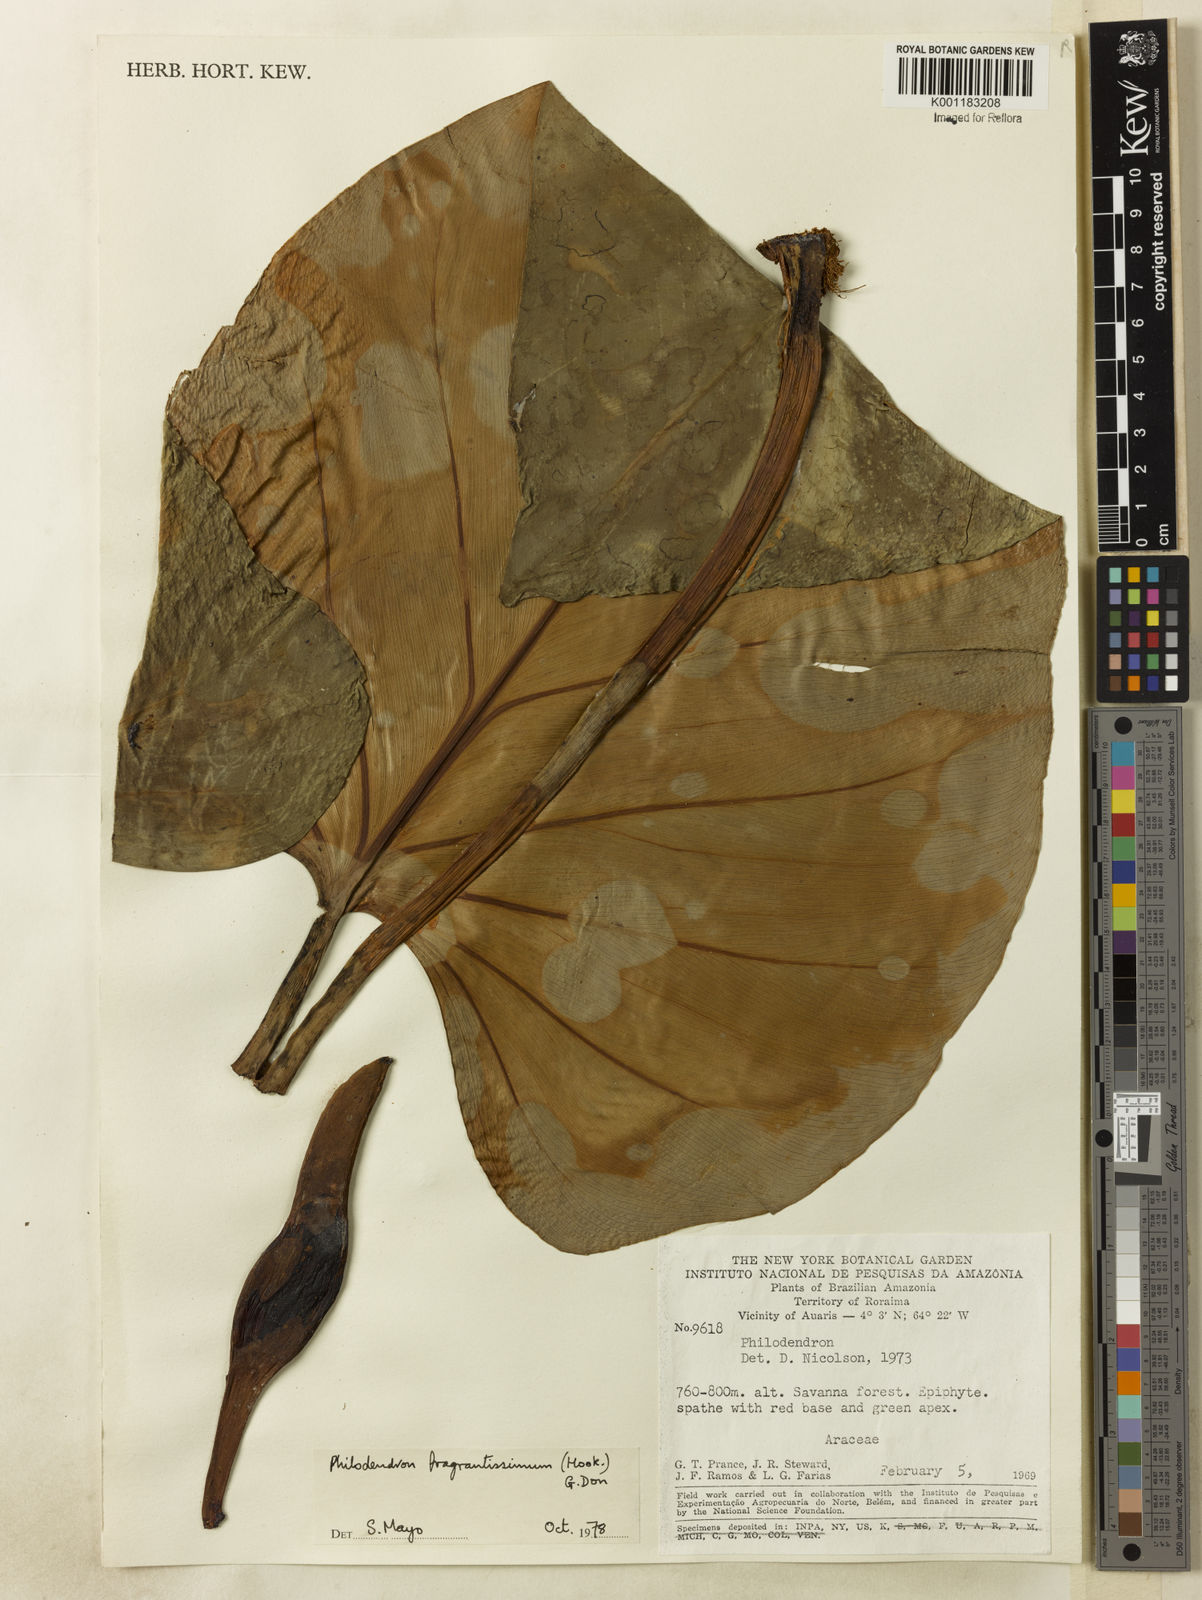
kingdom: Plantae
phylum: Tracheophyta
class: Liliopsida
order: Alismatales
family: Araceae
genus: Philodendron
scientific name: Philodendron
